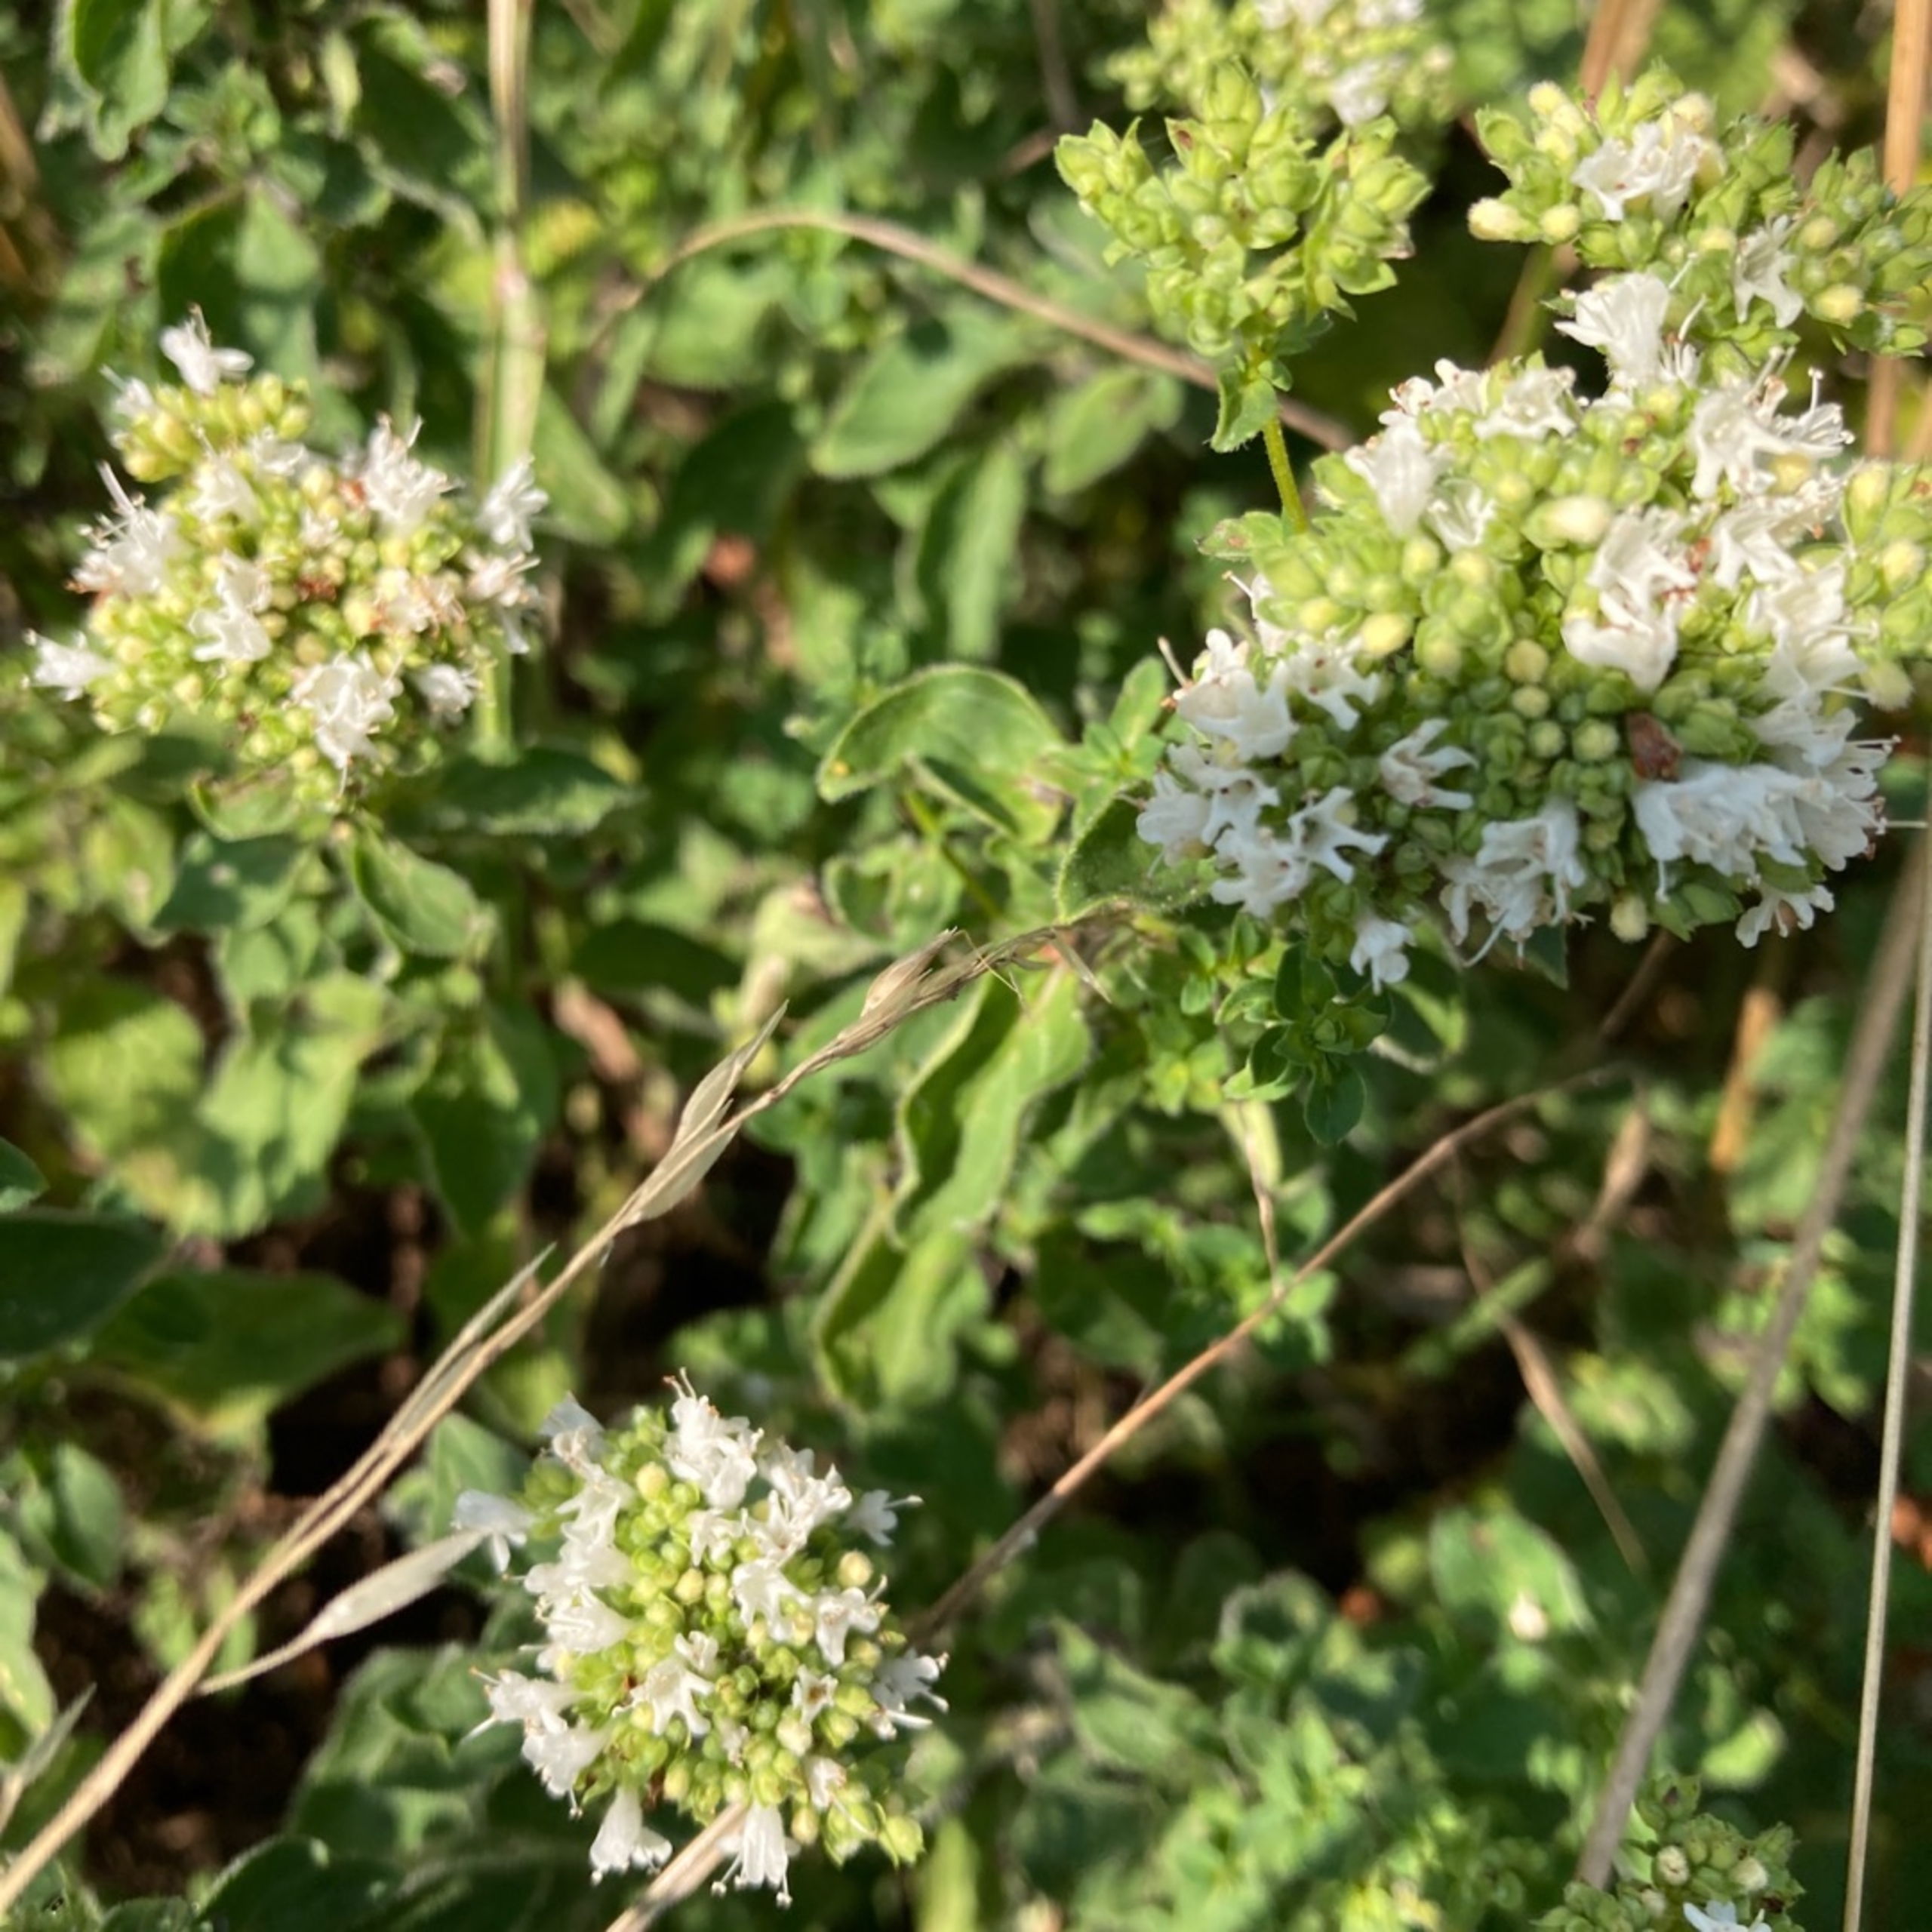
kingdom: Plantae
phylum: Tracheophyta
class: Magnoliopsida
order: Lamiales
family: Lamiaceae
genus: Origanum
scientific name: Origanum vulgare
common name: Merian
